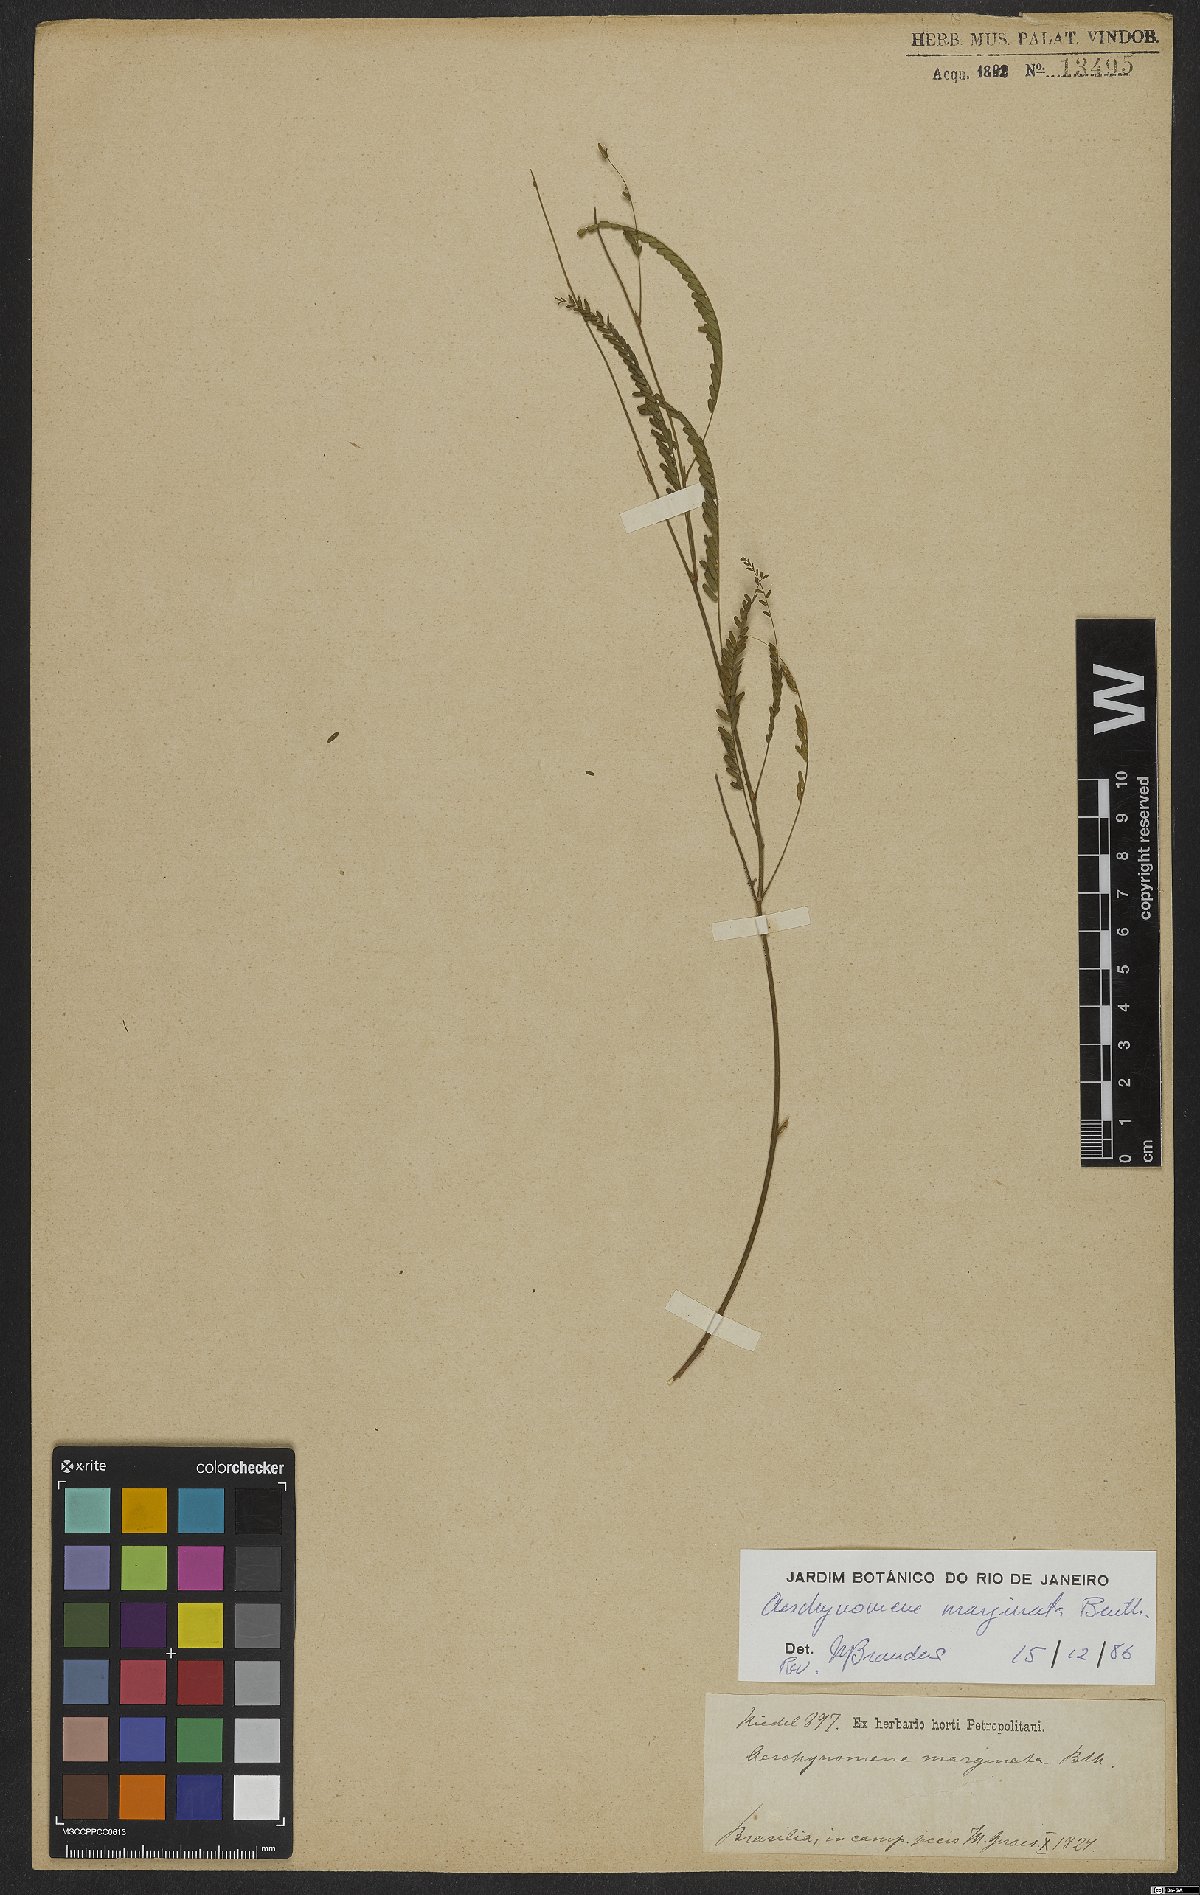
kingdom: Plantae
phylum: Tracheophyta
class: Magnoliopsida
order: Fabales
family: Fabaceae
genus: Ctenodon
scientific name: Ctenodon marginatus
